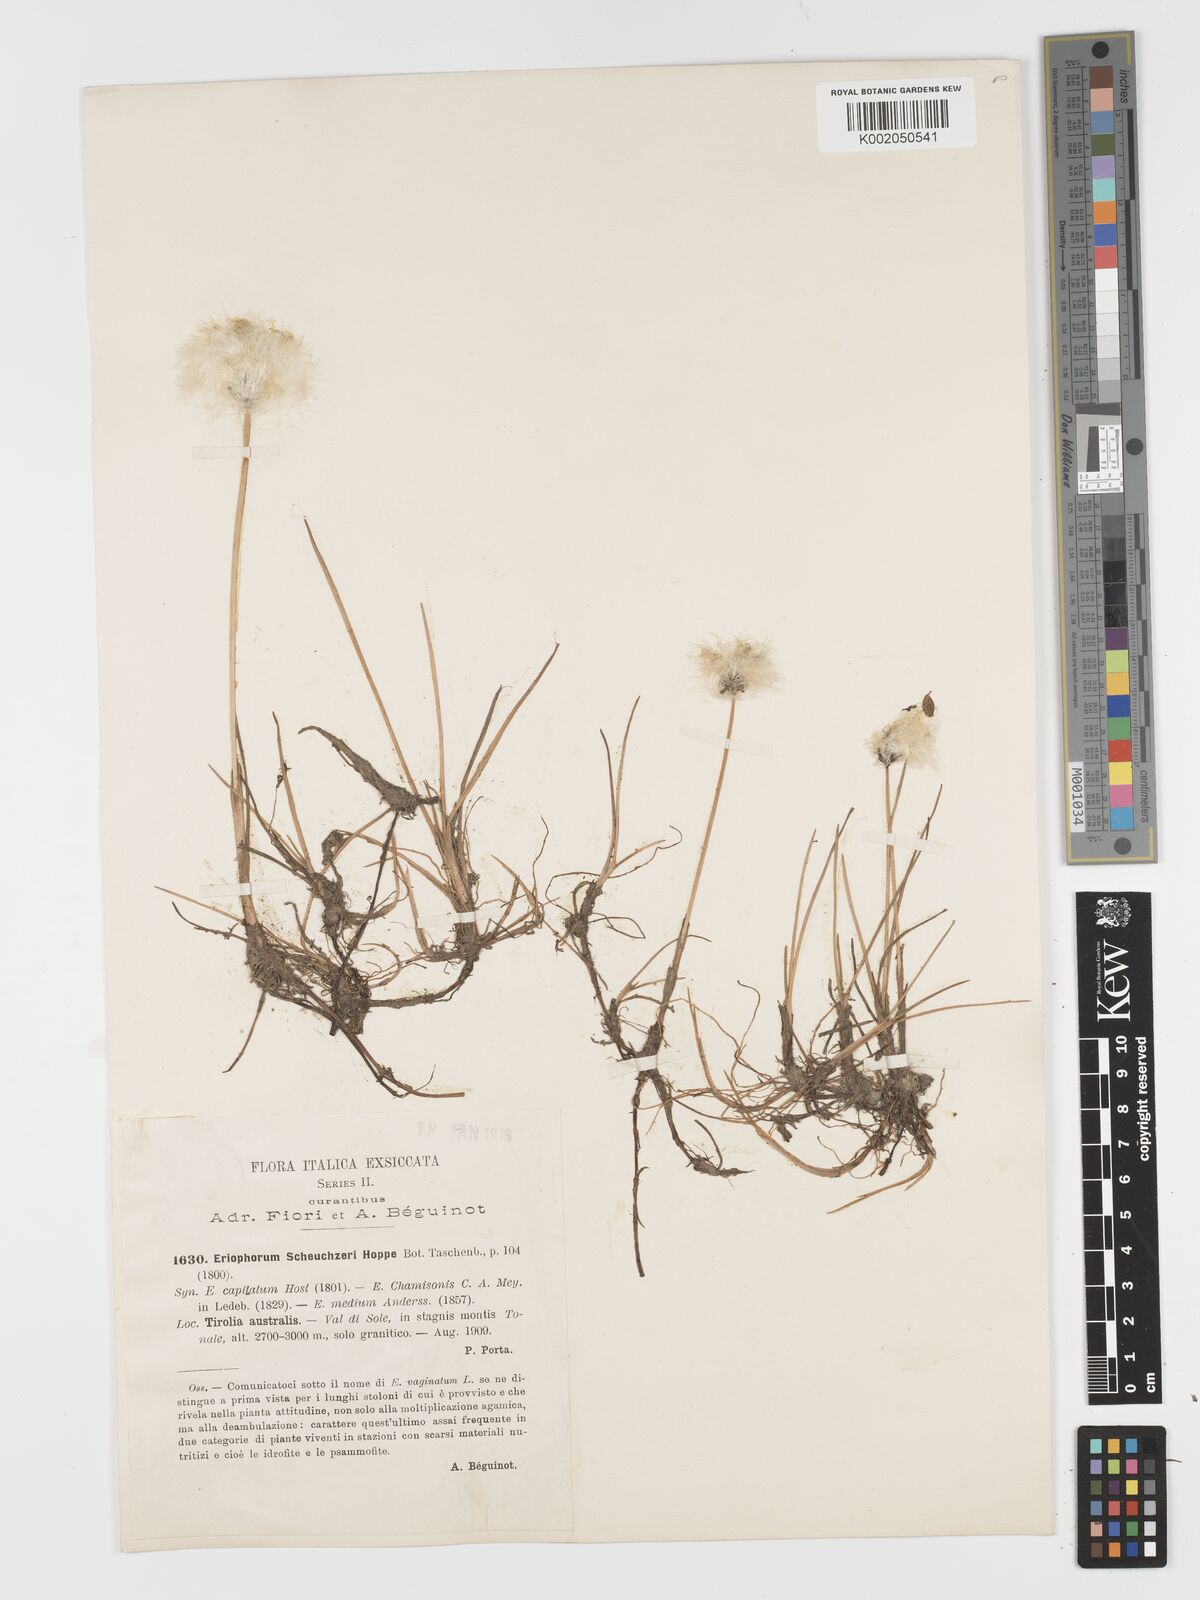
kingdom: Plantae
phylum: Tracheophyta
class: Liliopsida
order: Poales
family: Cyperaceae
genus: Eriophorum
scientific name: Eriophorum scheuchzeri
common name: Scheuchzer's cottongrass
